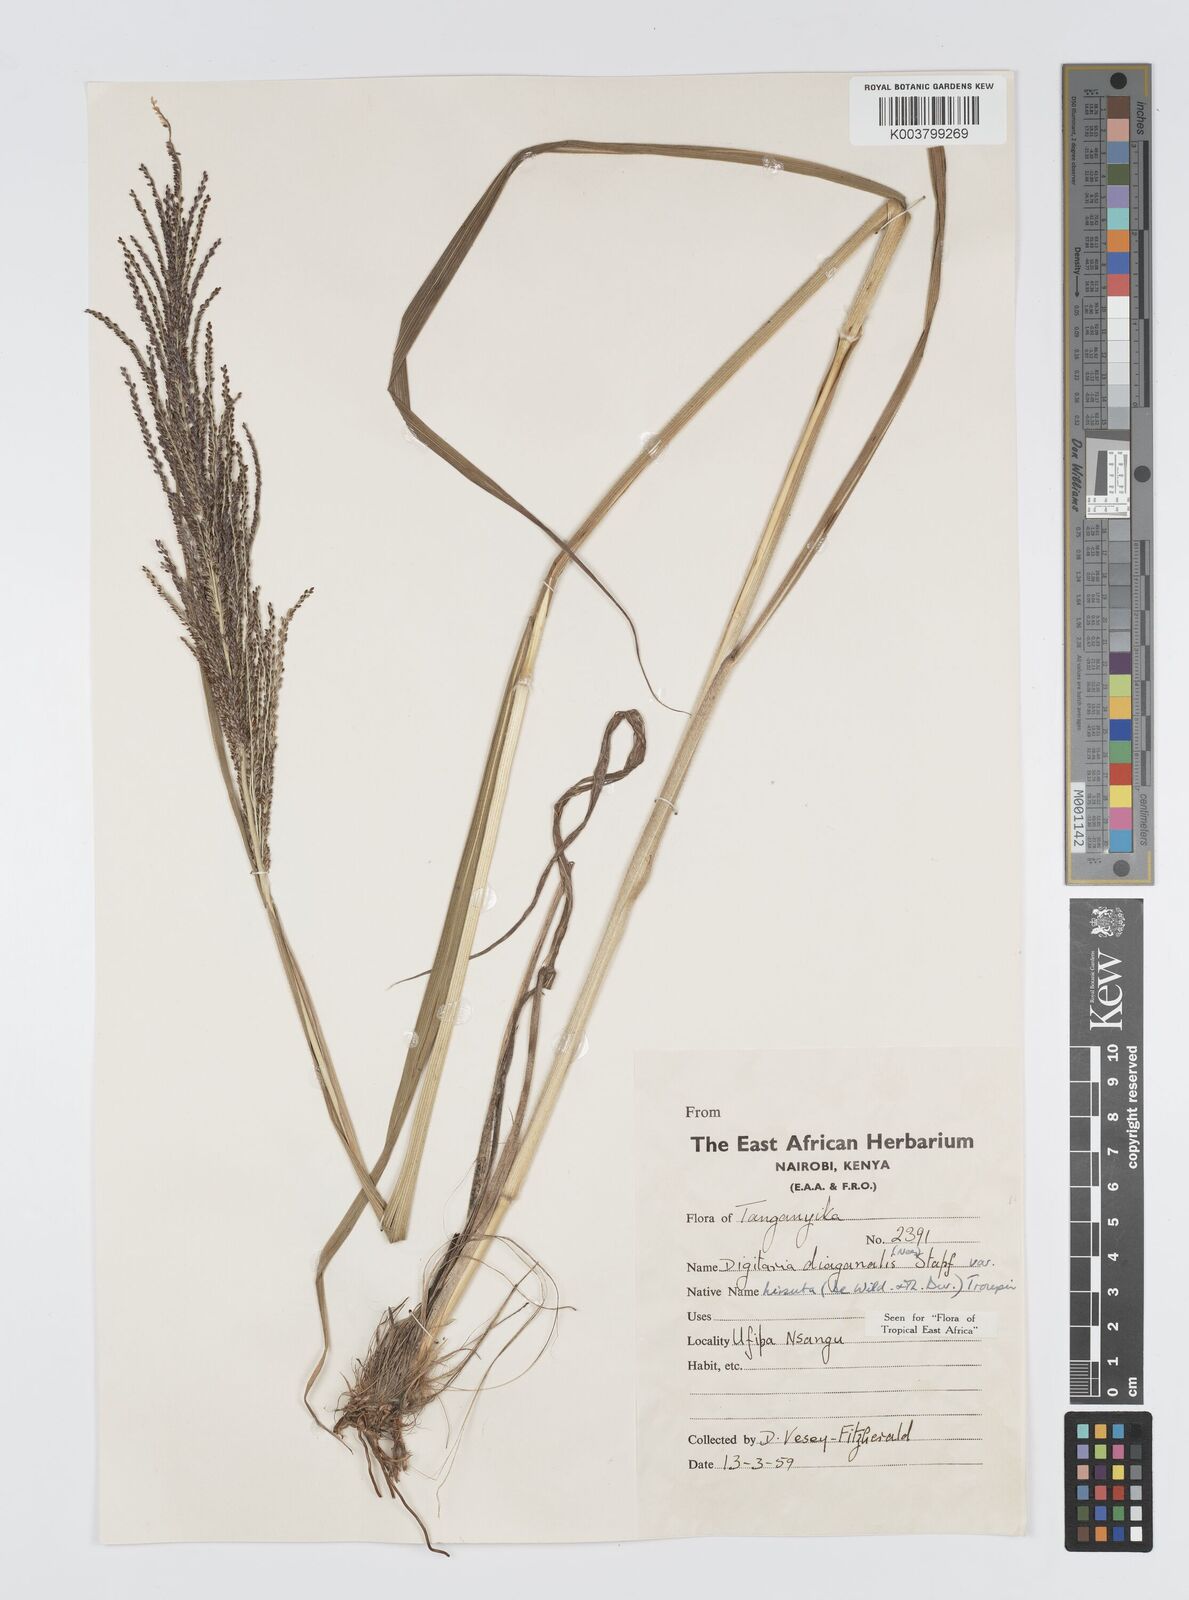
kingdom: Plantae
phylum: Tracheophyta
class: Liliopsida
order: Poales
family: Poaceae
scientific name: Poaceae
